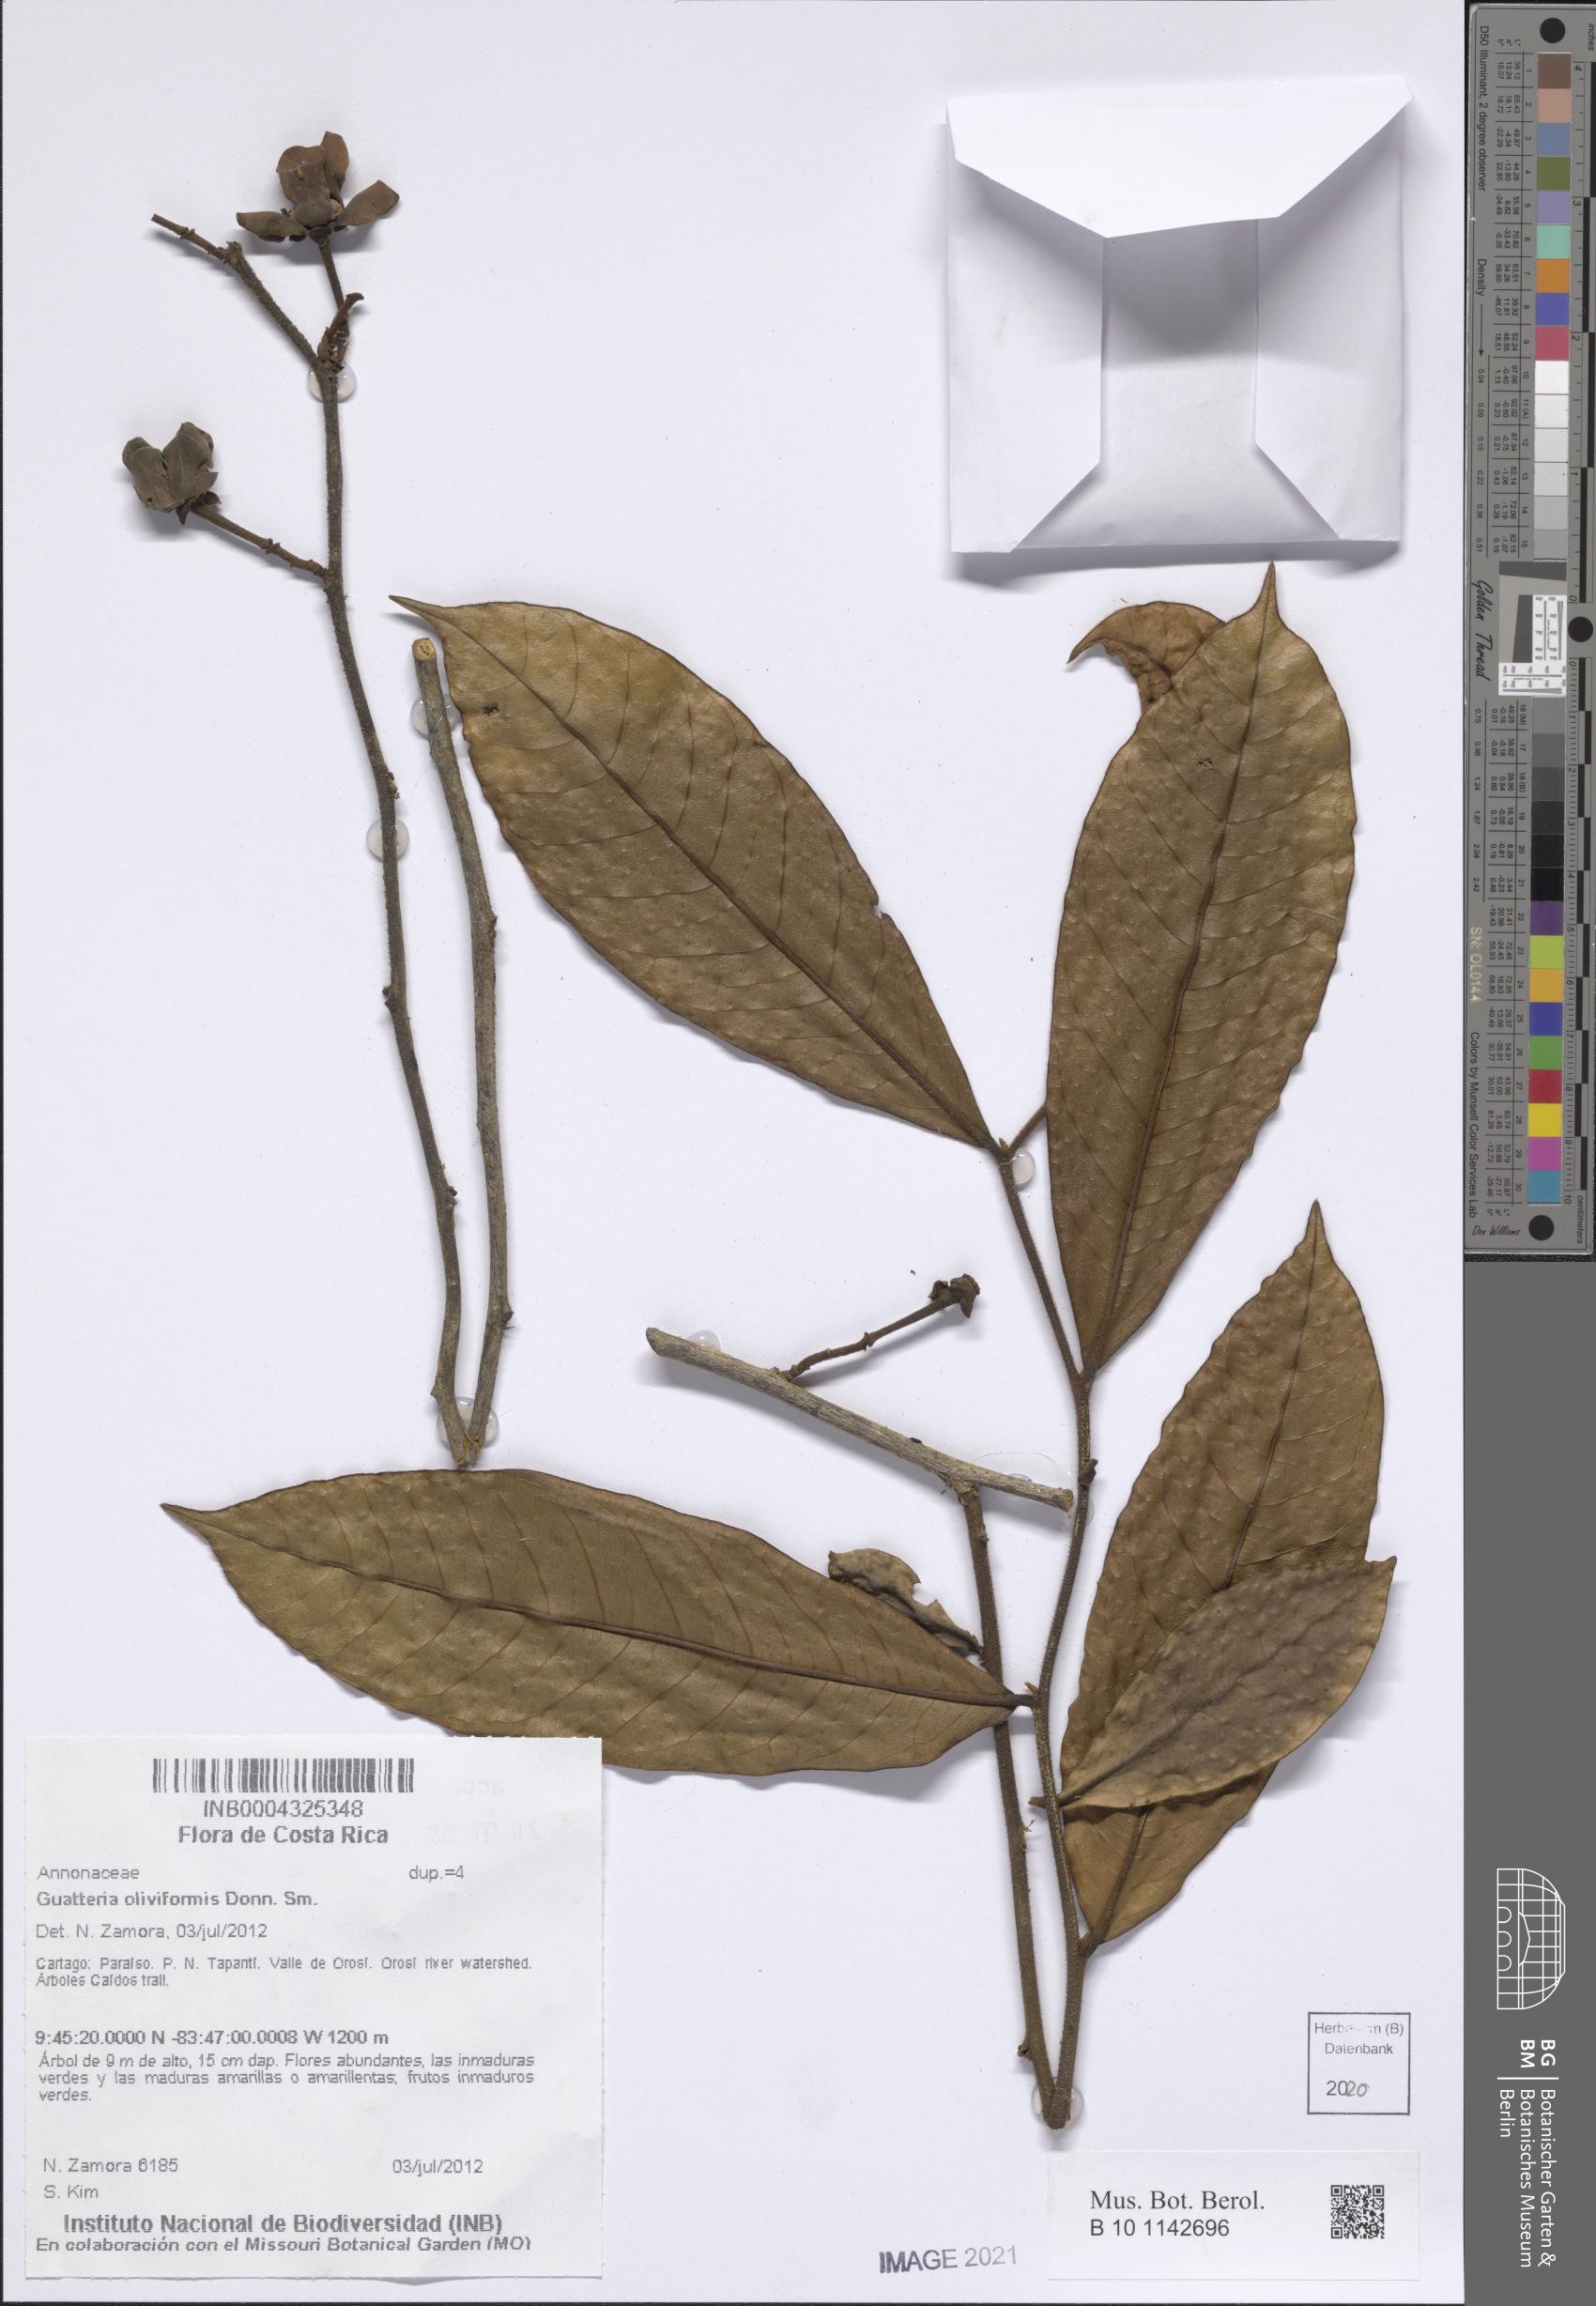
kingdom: Plantae
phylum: Tracheophyta
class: Magnoliopsida
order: Magnoliales
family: Annonaceae
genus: Guatteria
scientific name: Guatteria oliviformis
